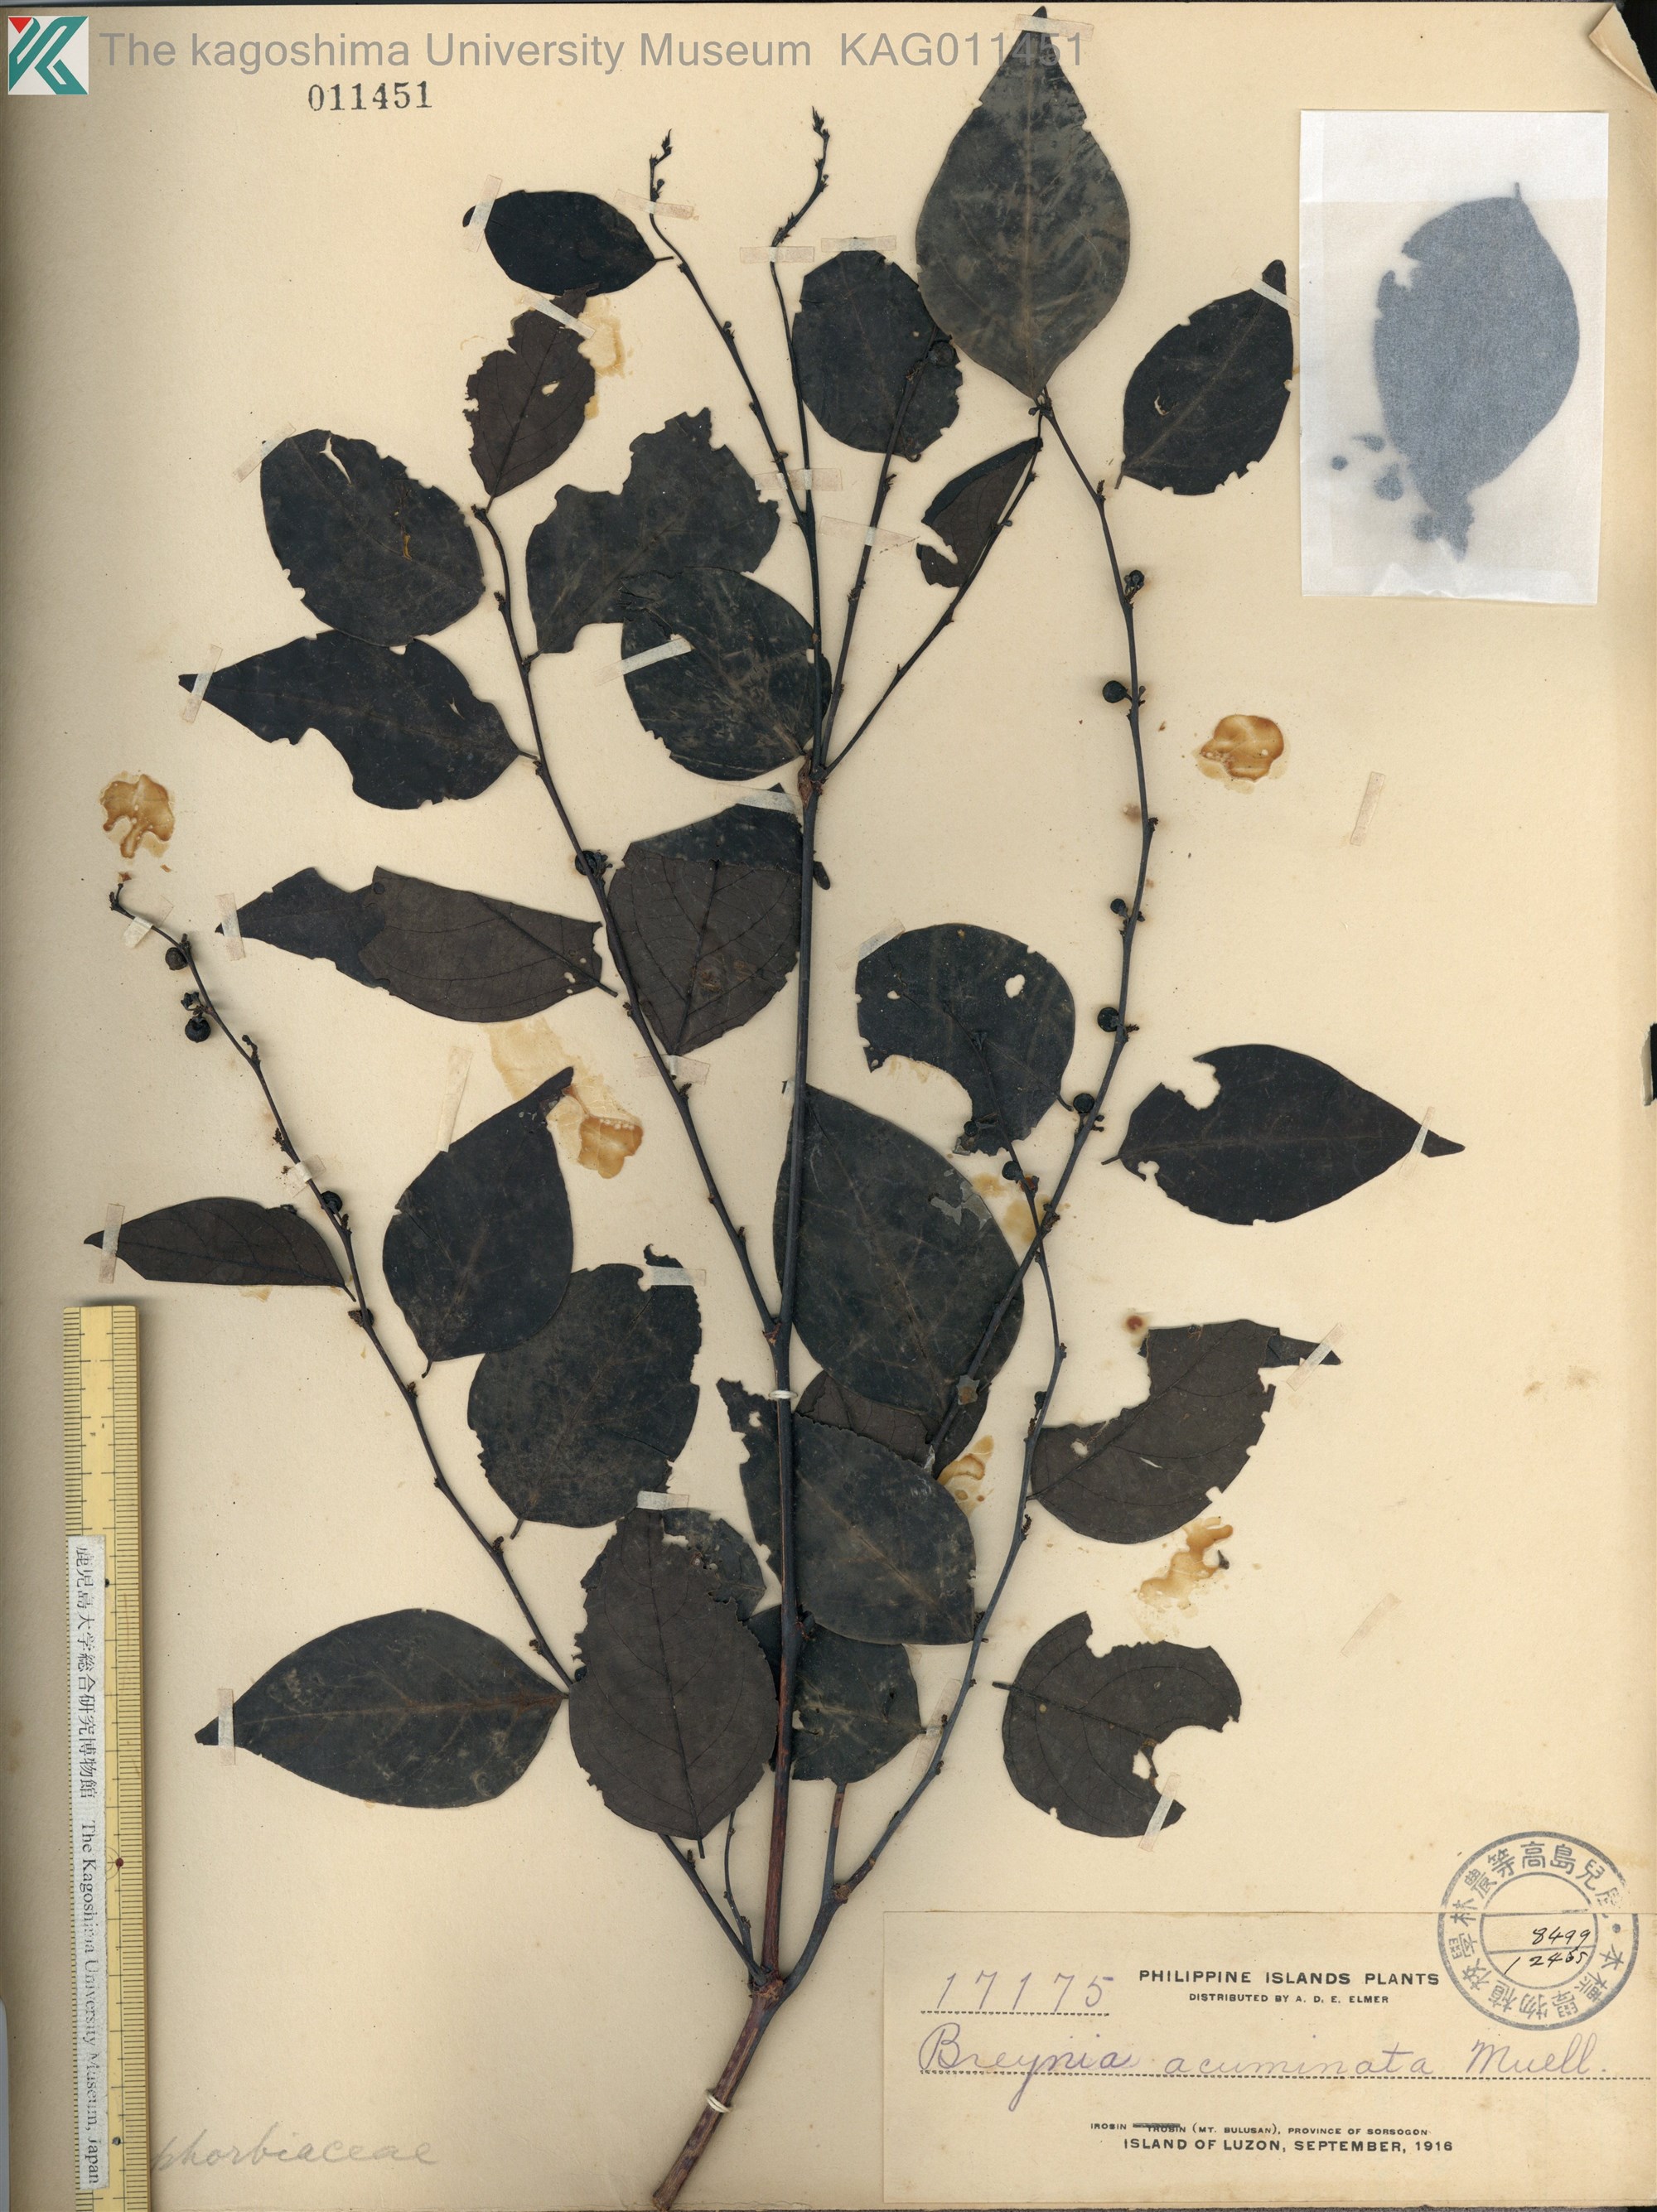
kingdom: Plantae
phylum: Tracheophyta
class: Magnoliopsida
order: Malpighiales
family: Phyllanthaceae
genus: Breynia
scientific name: Breynia racemosa
